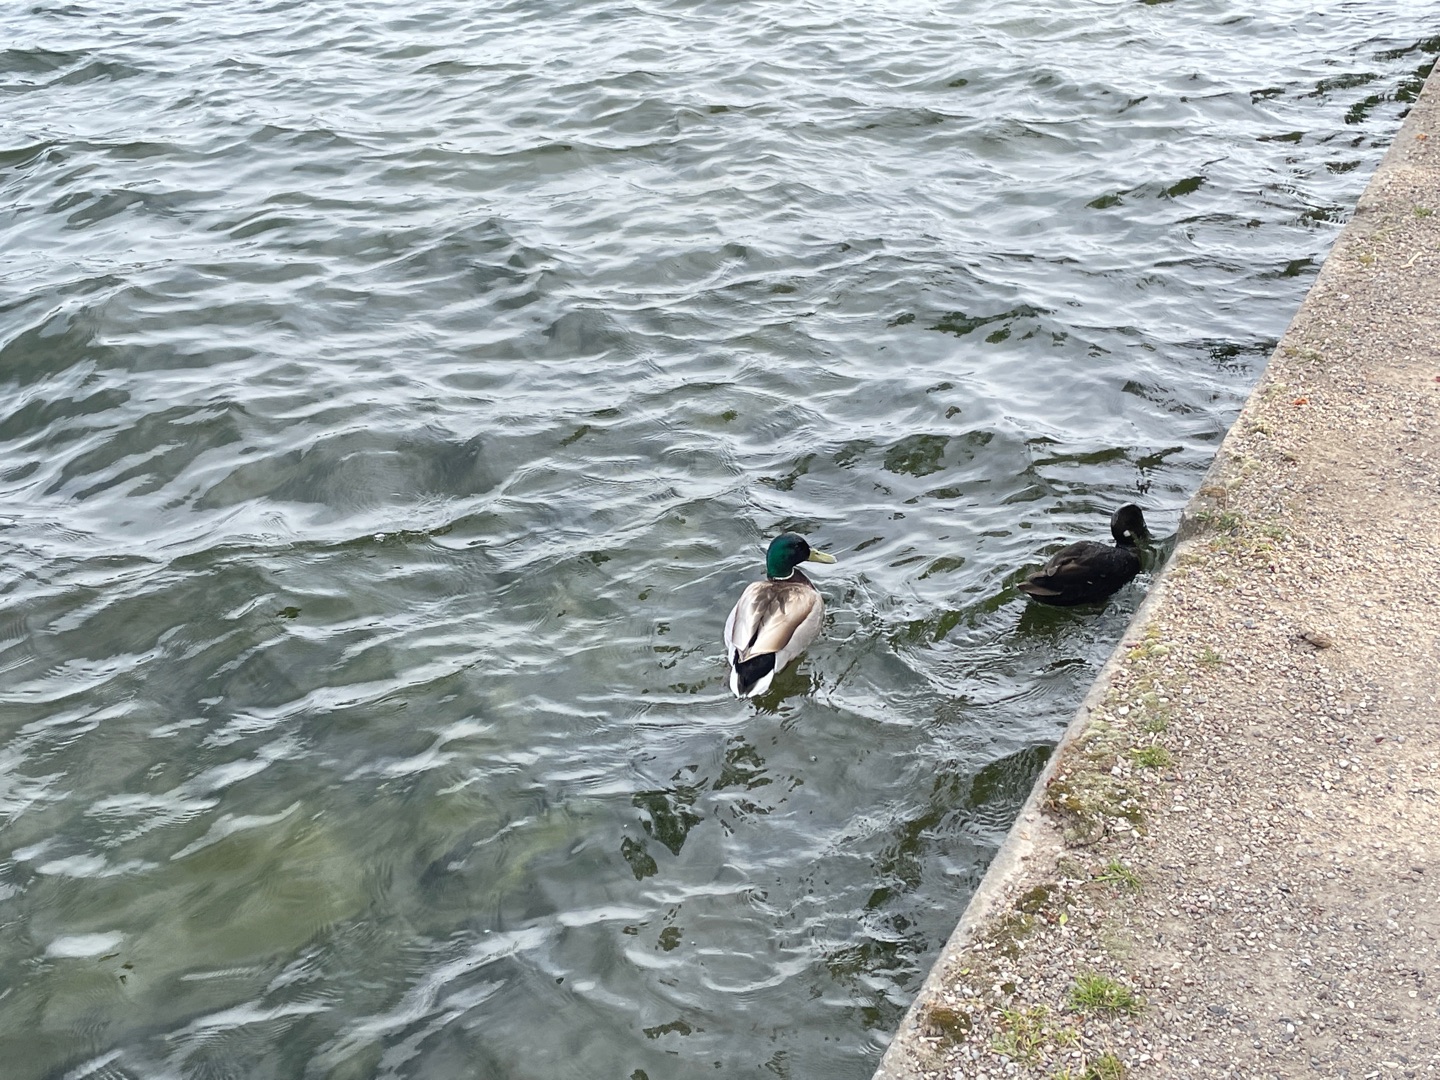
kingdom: Animalia
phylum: Chordata
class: Aves
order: Anseriformes
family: Anatidae
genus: Anas
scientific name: Anas platyrhynchos
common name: Gråand
